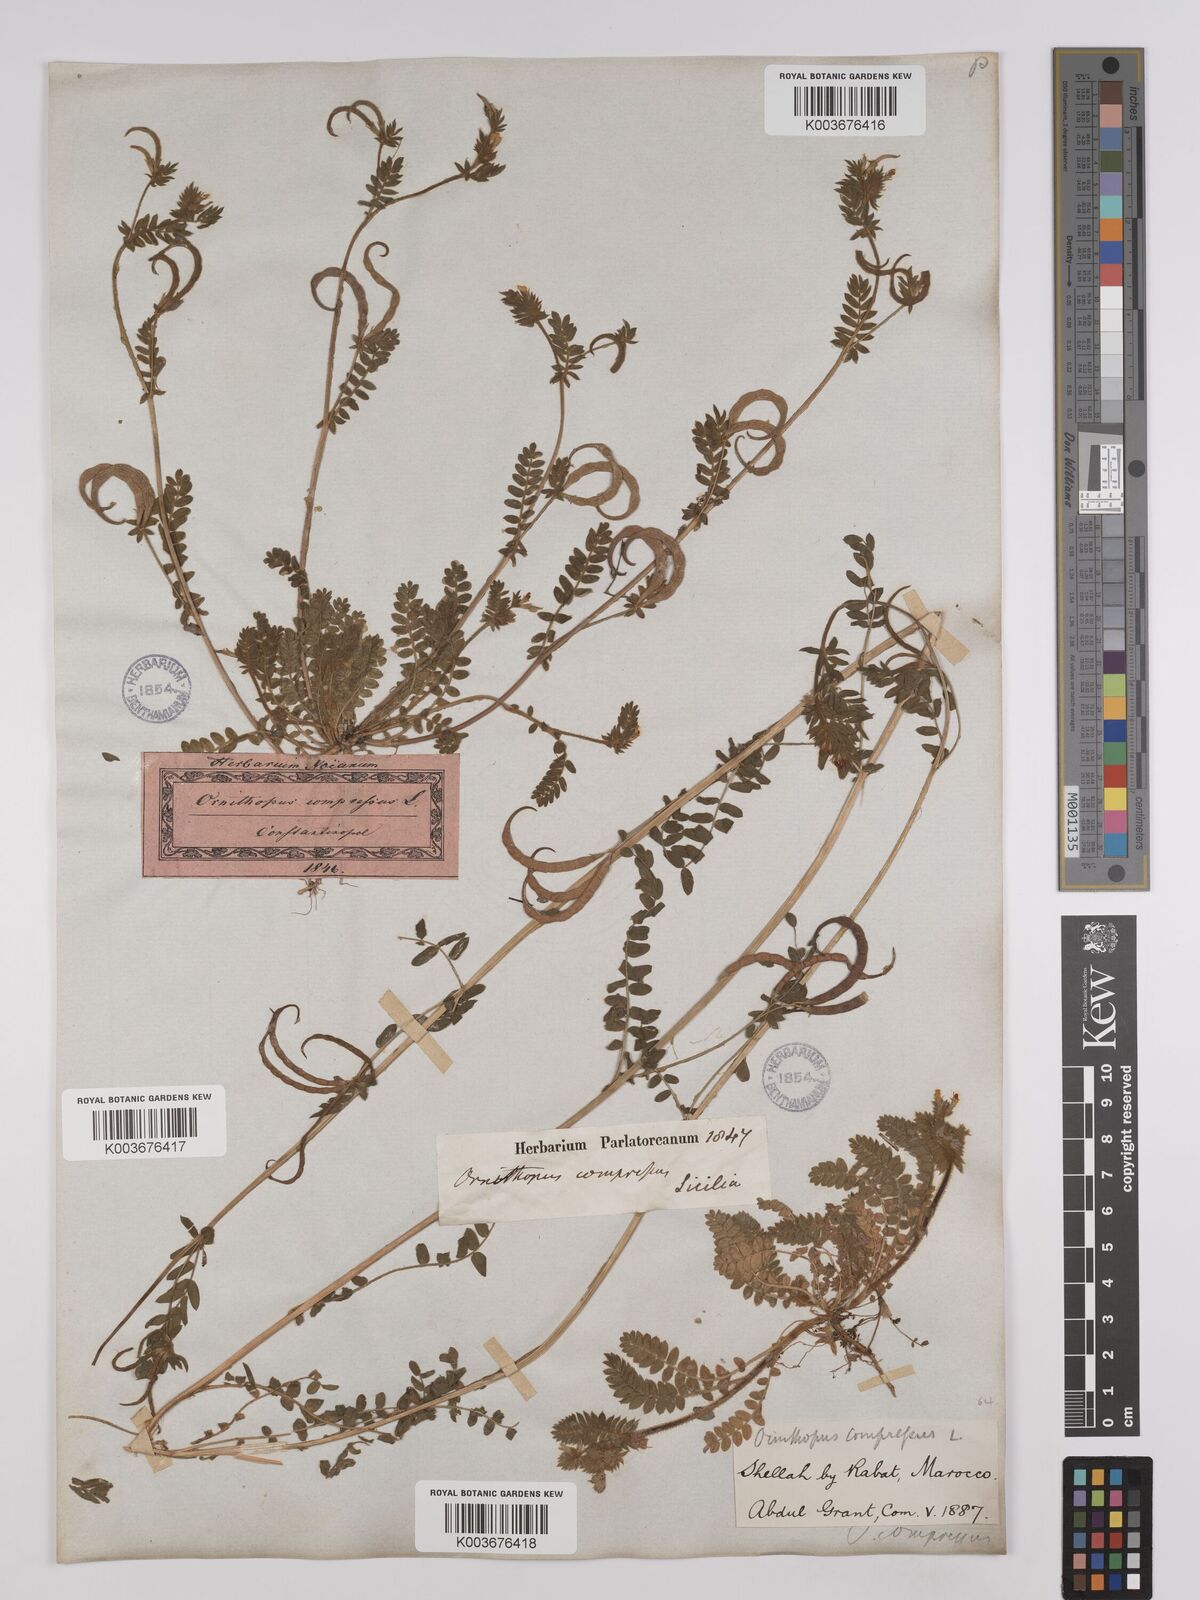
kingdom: Plantae
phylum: Tracheophyta
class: Magnoliopsida
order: Fabales
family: Fabaceae
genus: Ornithopus
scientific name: Ornithopus compressus
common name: Yellow serradella
